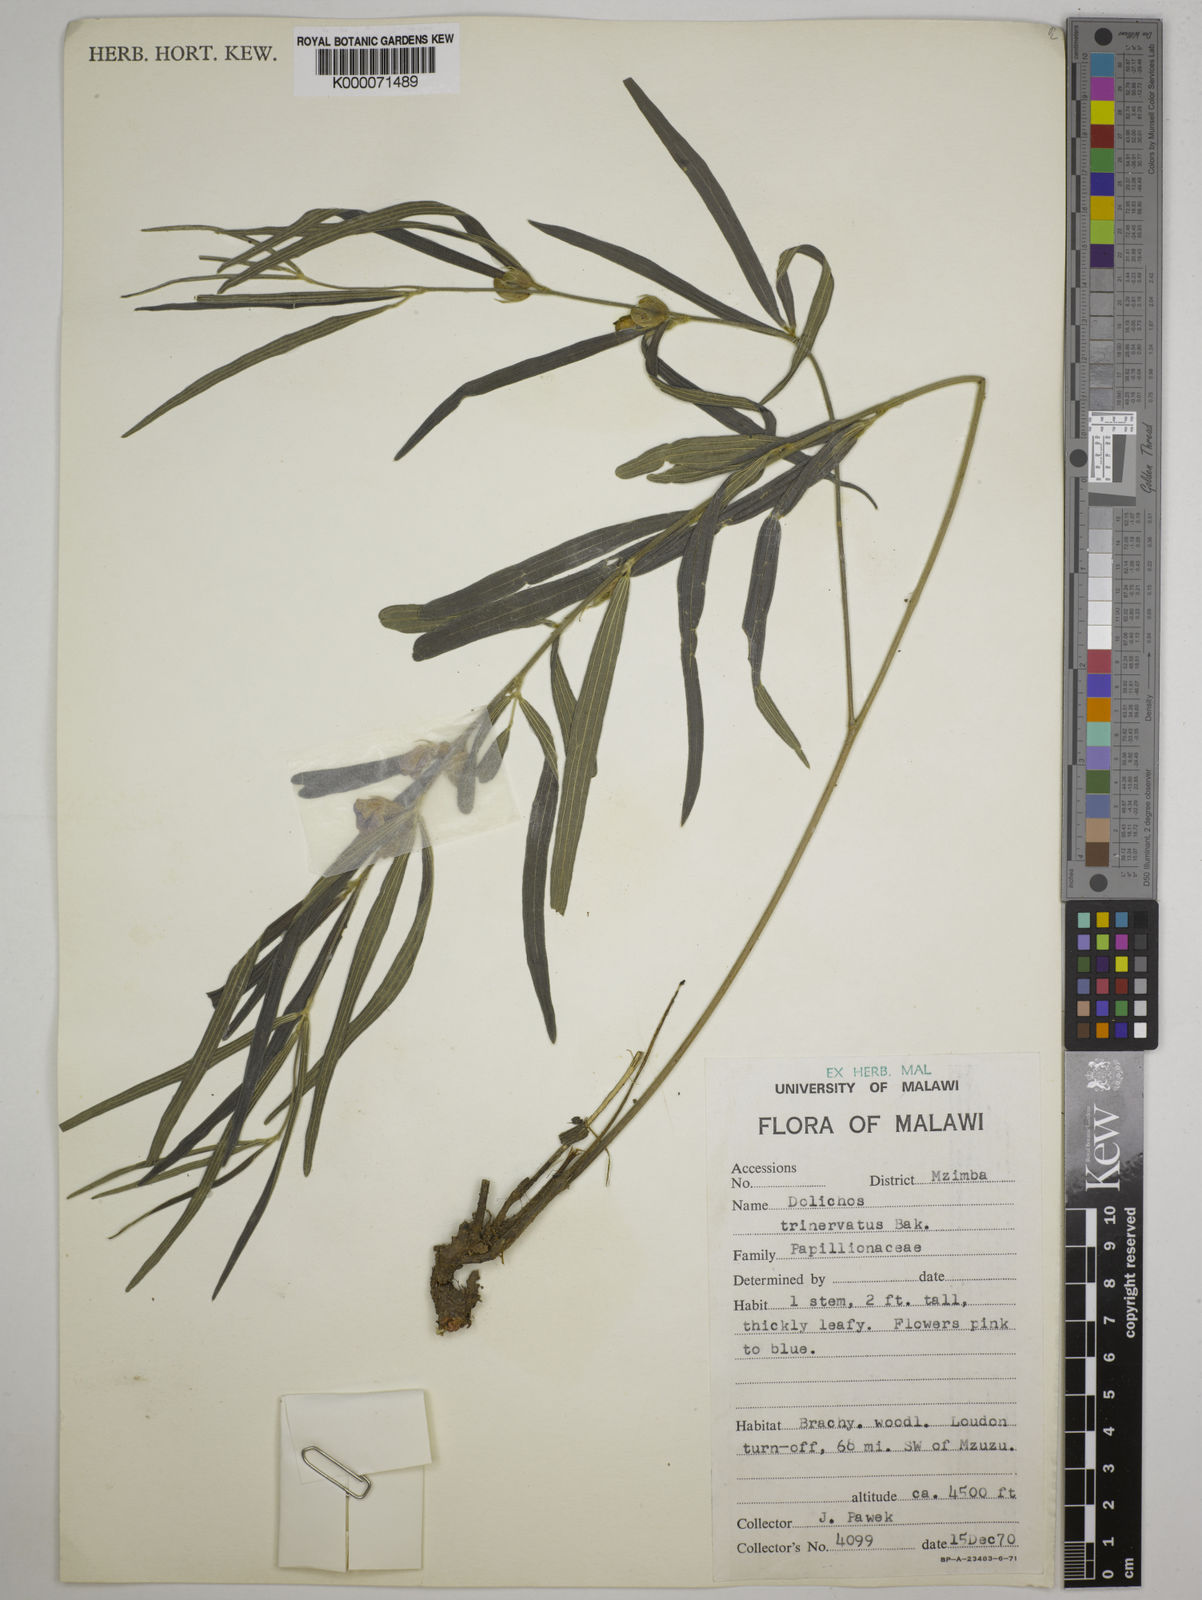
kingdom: Plantae
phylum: Tracheophyta
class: Magnoliopsida
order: Fabales
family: Fabaceae
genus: Dolichos
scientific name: Dolichos trinervatus
